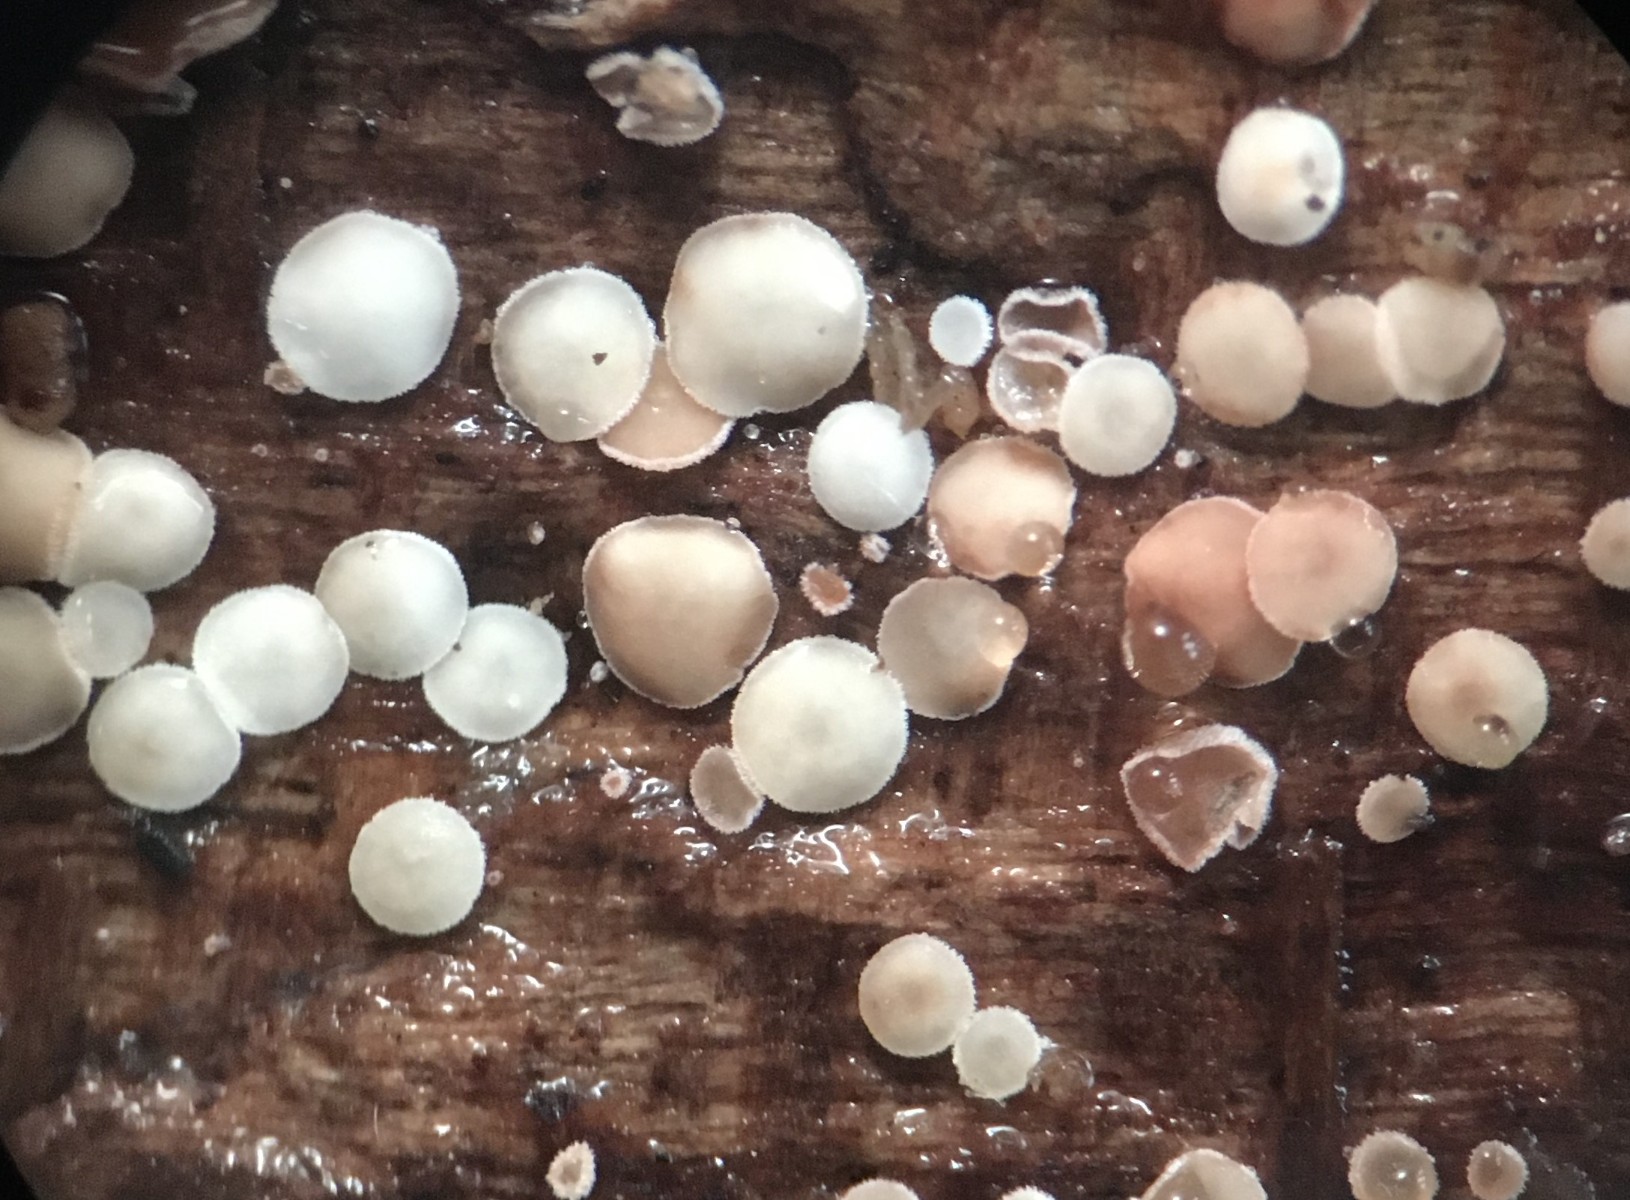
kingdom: Fungi
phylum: Ascomycota
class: Leotiomycetes
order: Helotiales
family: Lachnaceae
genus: Lachnum
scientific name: Lachnum brevipilosum
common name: korthåret frynseskive
